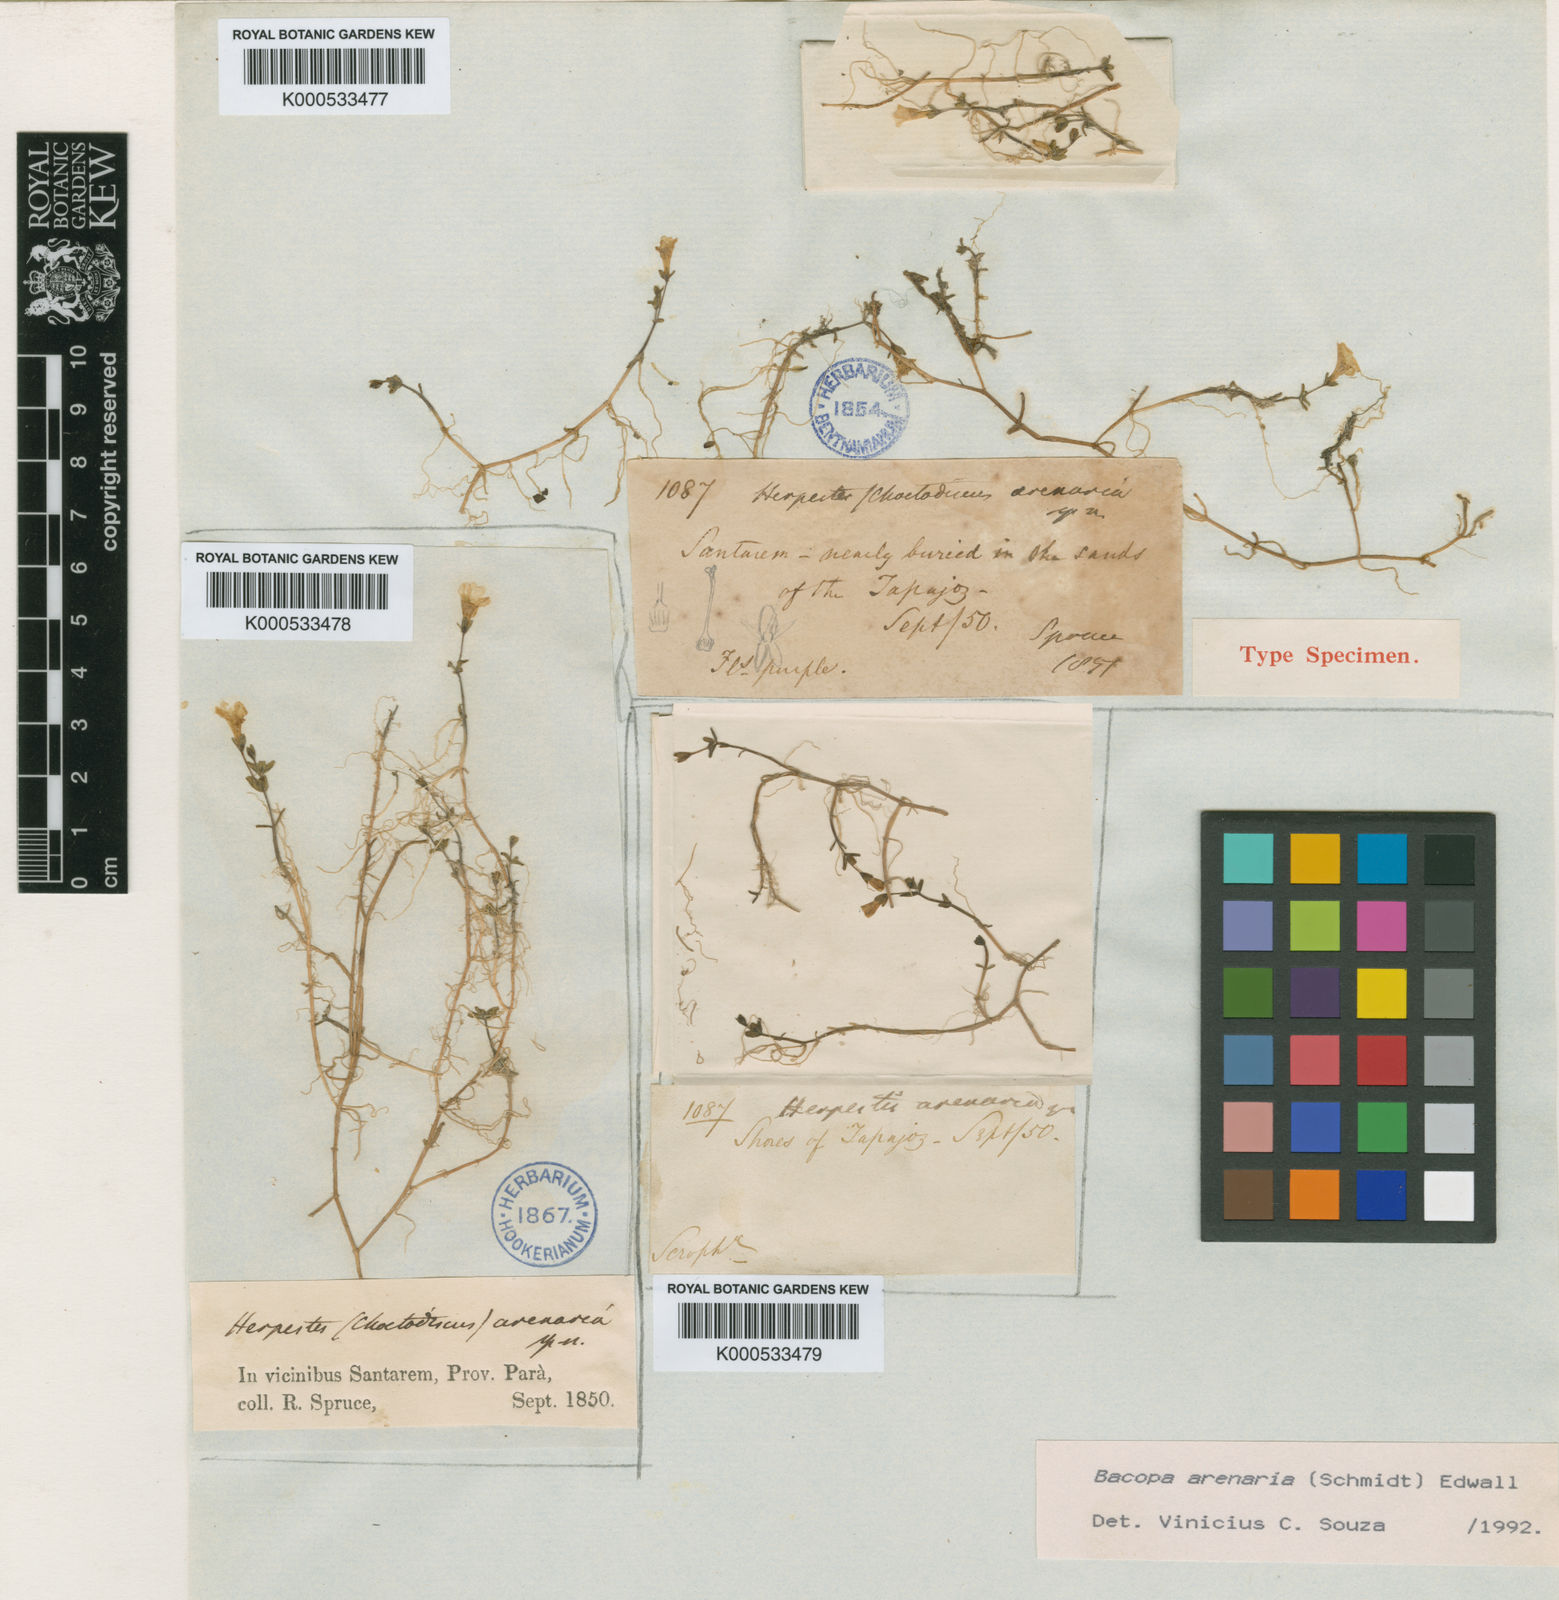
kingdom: Plantae
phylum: Tracheophyta
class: Magnoliopsida
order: Lamiales
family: Plantaginaceae
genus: Bacopa
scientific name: Bacopa arenaria
